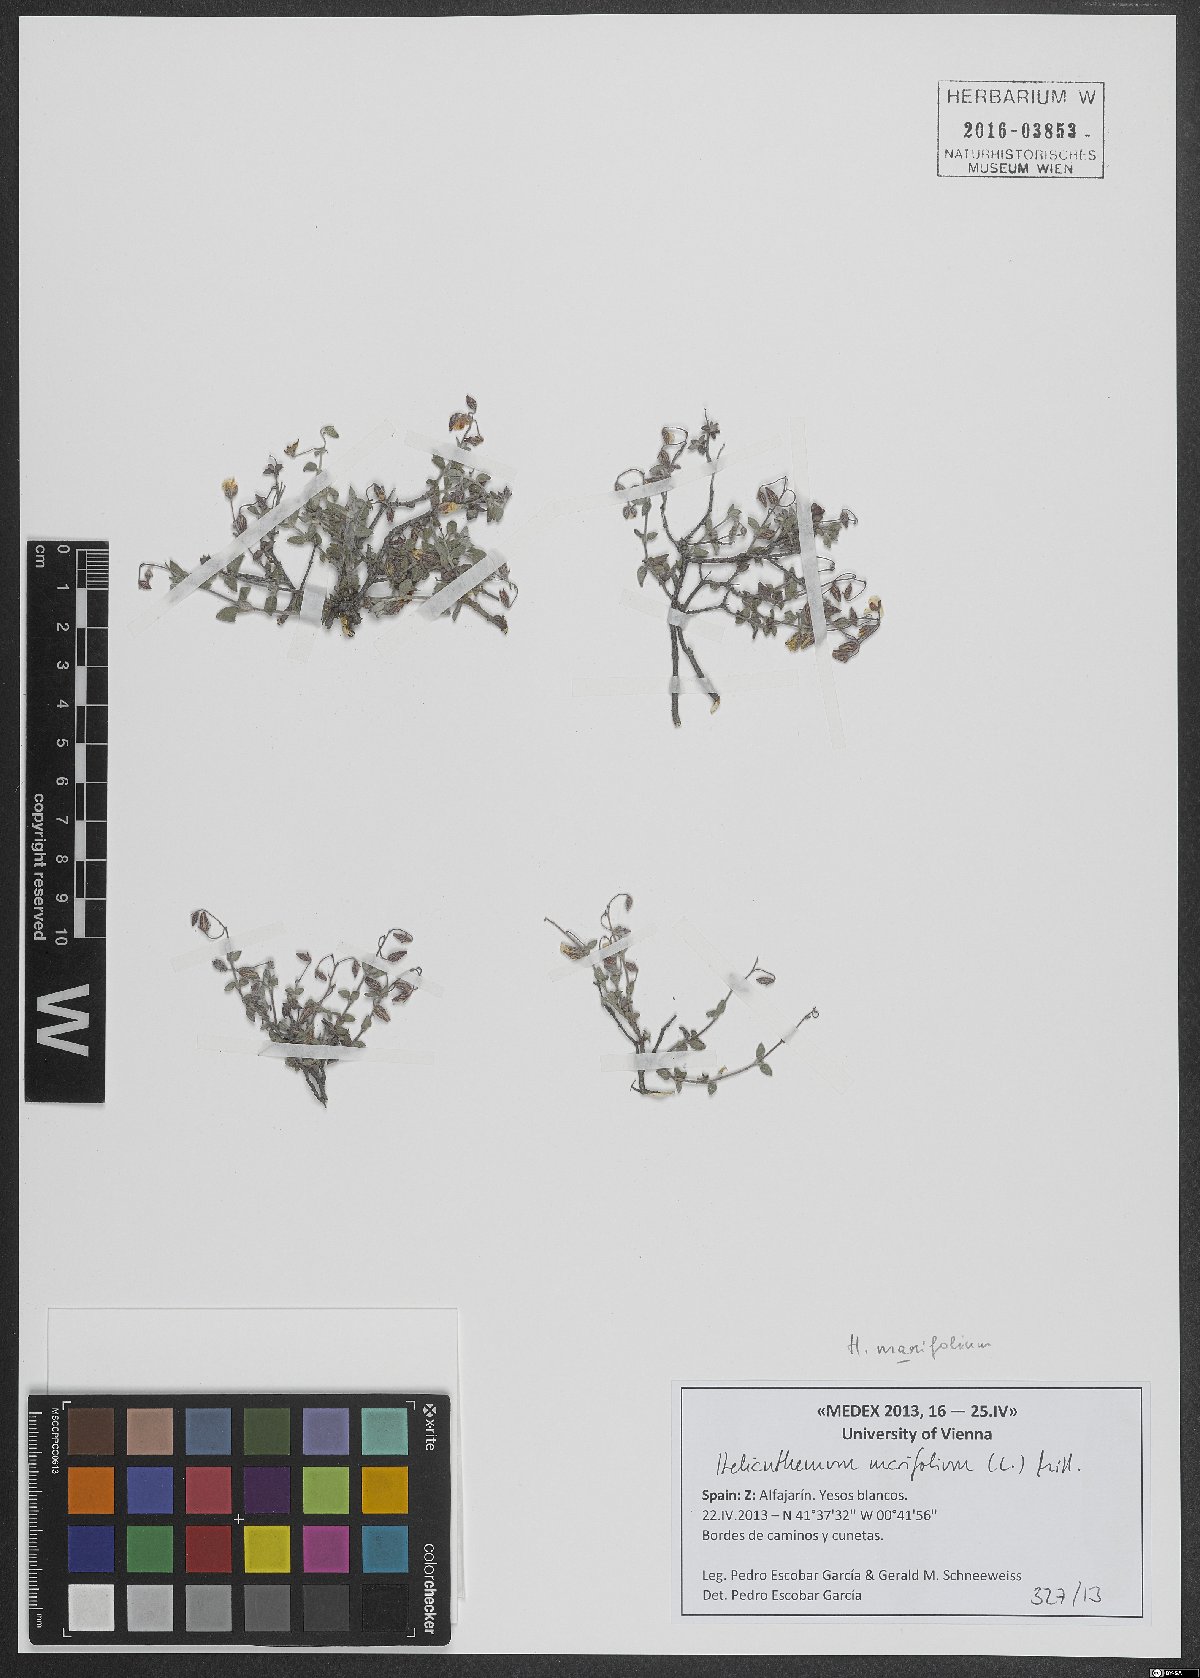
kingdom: Plantae
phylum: Tracheophyta
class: Magnoliopsida
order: Malvales
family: Cistaceae
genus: Helianthemum
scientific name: Helianthemum marifolium
